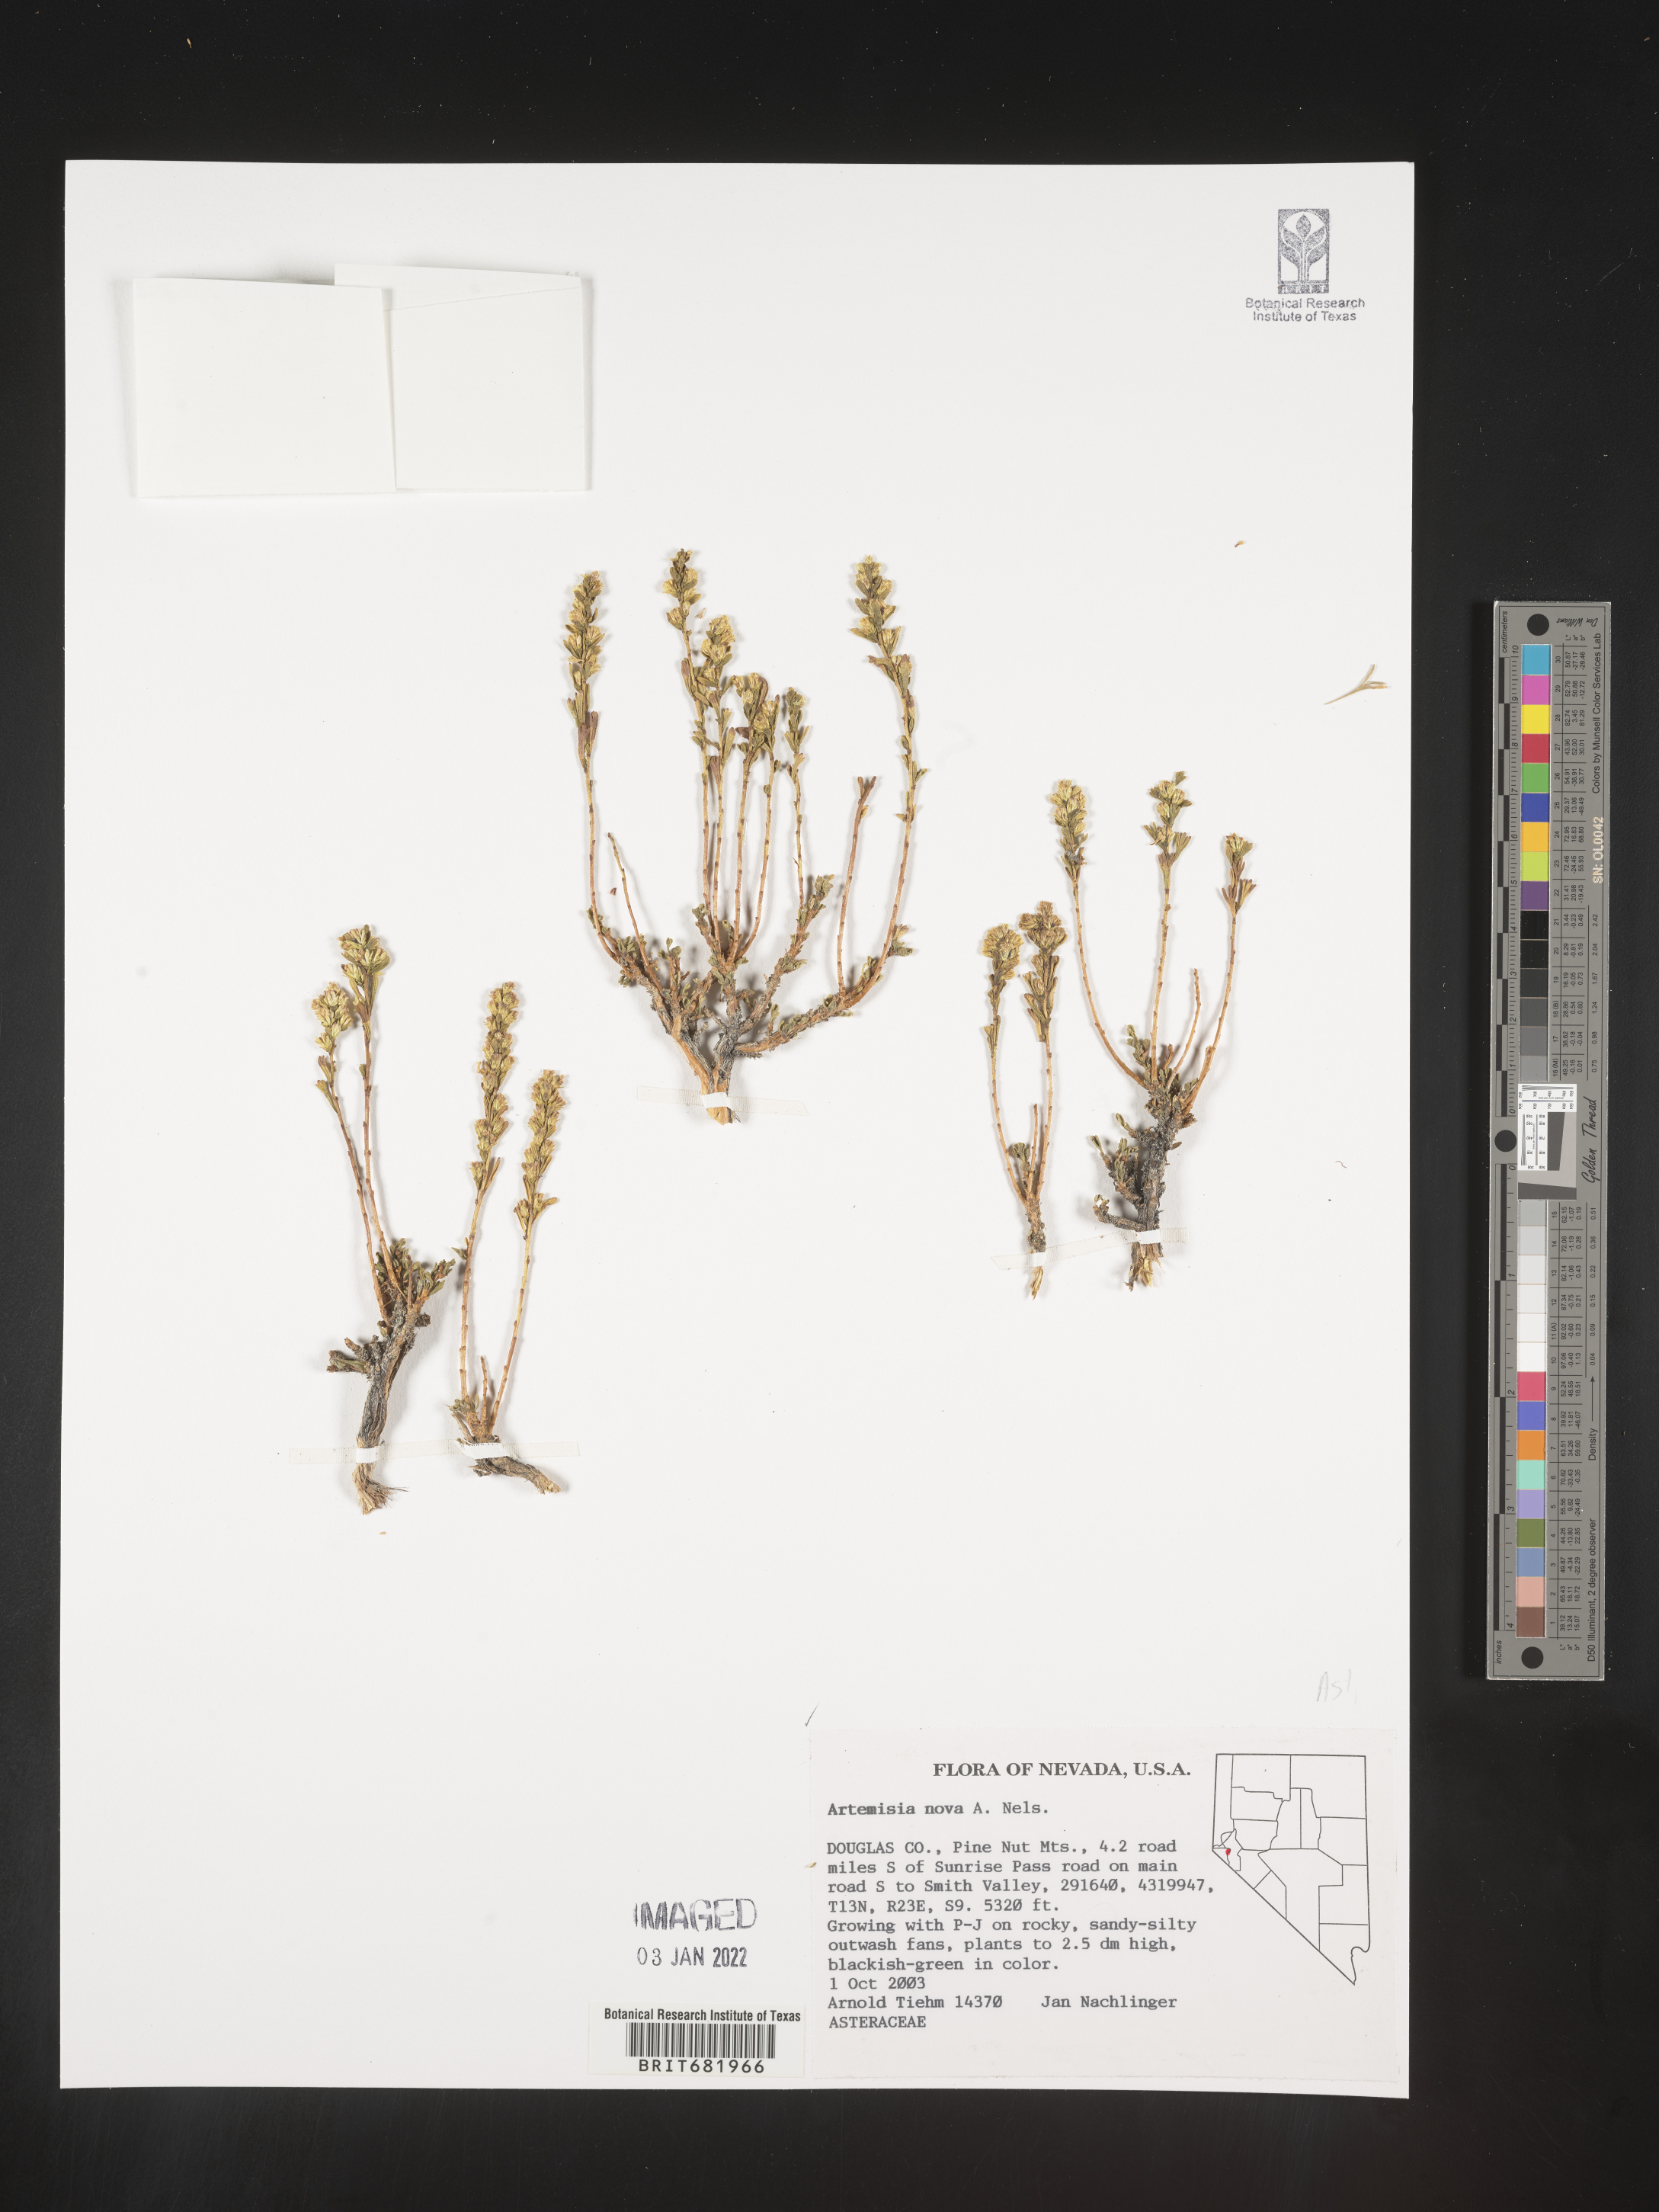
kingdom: Plantae
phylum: Tracheophyta
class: Magnoliopsida
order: Asterales
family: Asteraceae
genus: Artemisia
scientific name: Artemisia nova
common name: Black-sage
